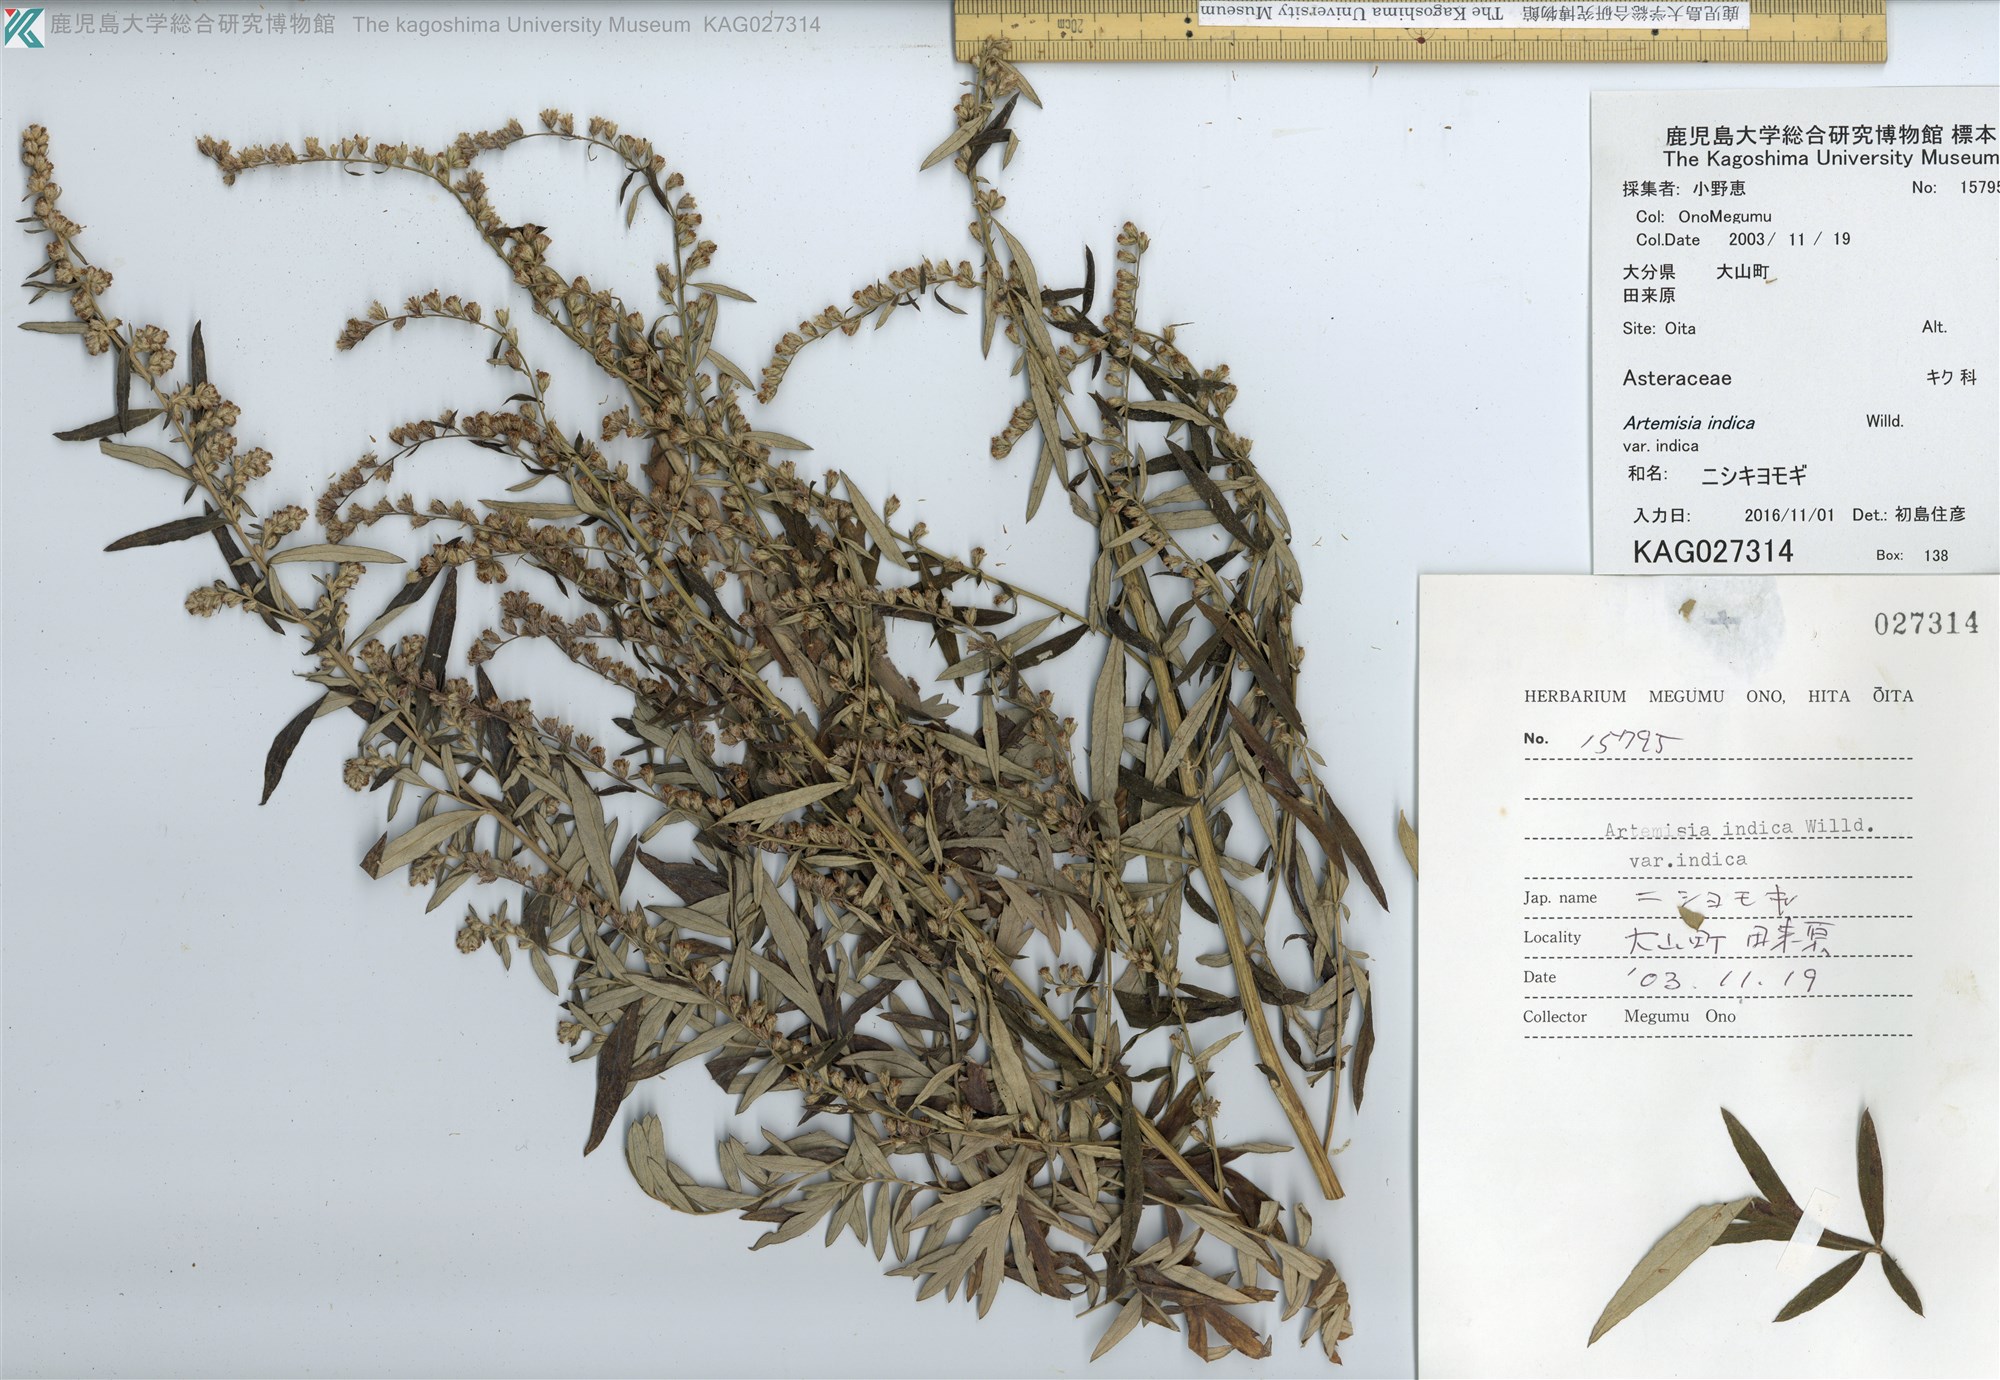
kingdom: Plantae
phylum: Tracheophyta
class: Magnoliopsida
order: Asterales
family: Asteraceae
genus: Artemisia
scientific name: Artemisia indica
